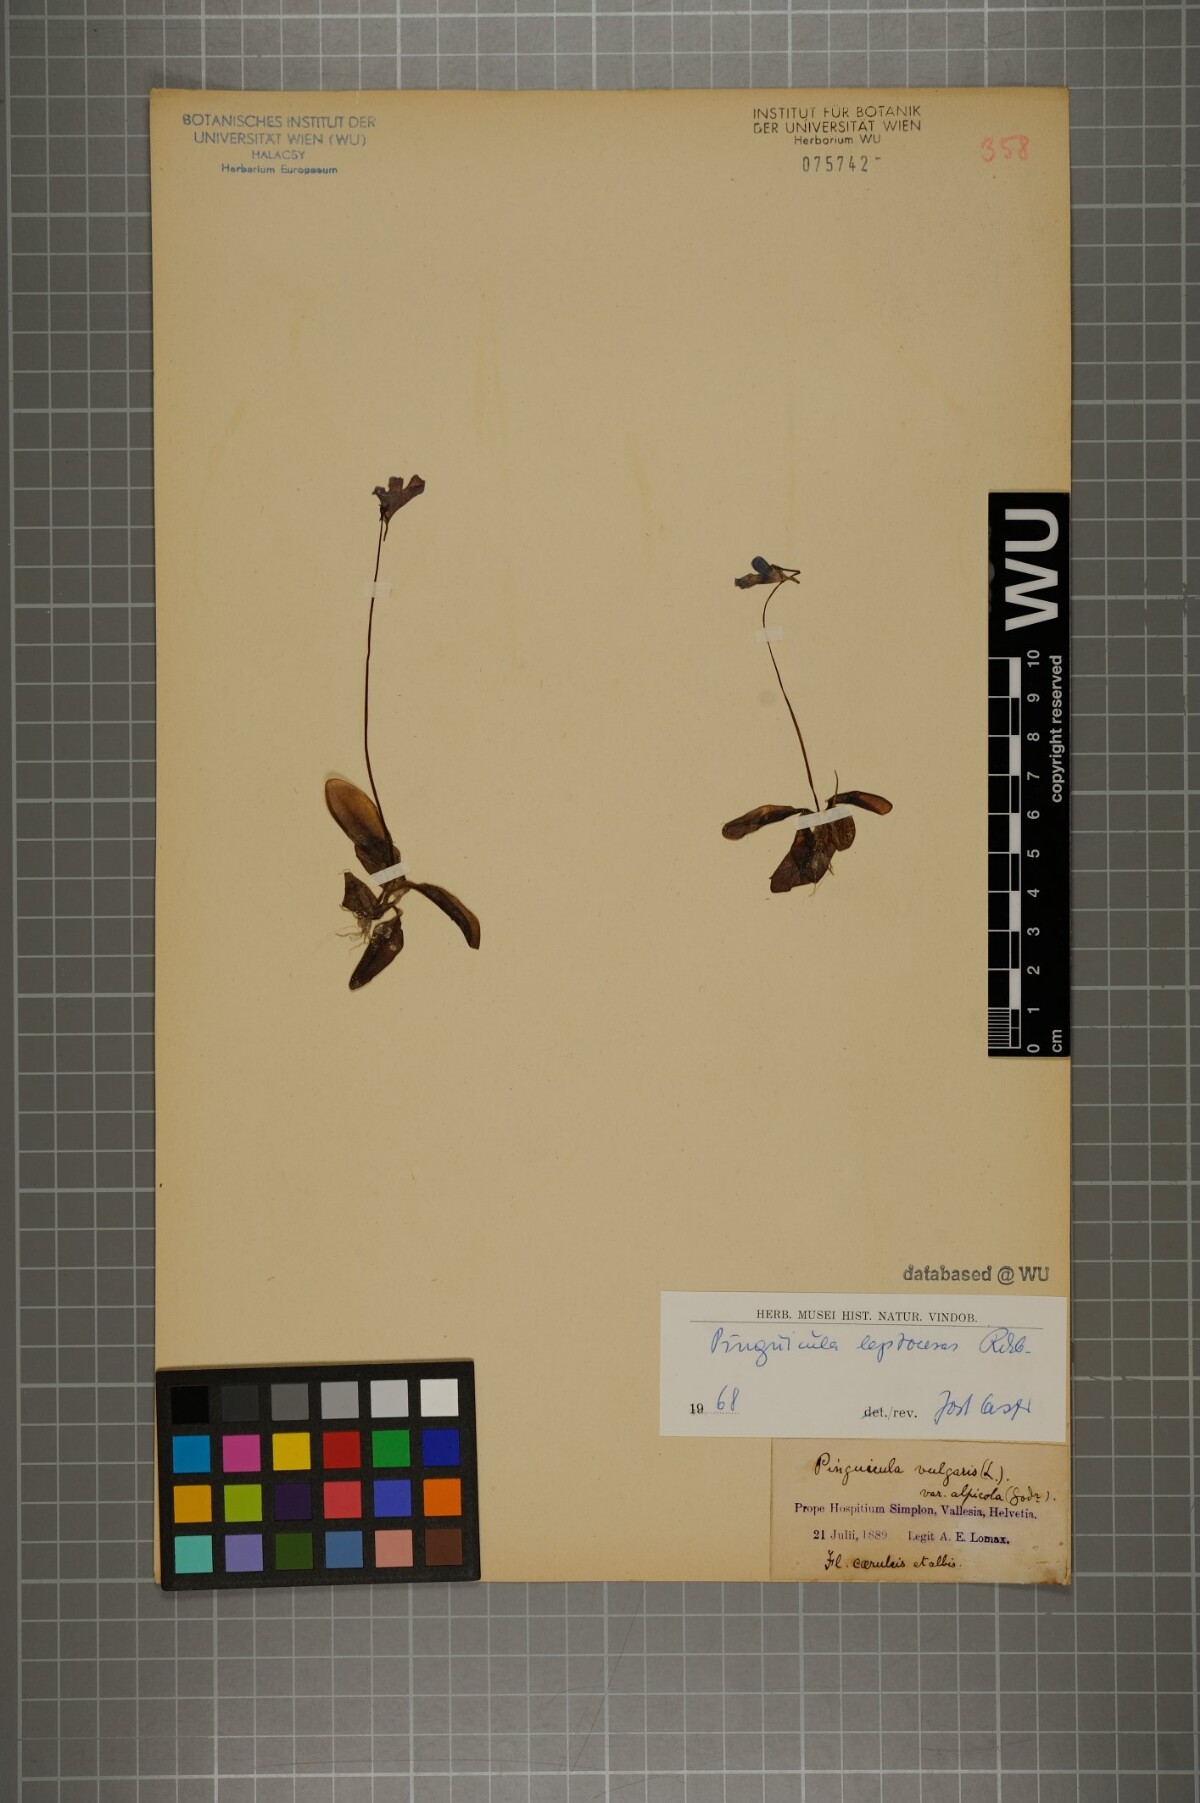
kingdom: Plantae
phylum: Tracheophyta
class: Magnoliopsida
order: Lamiales
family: Lentibulariaceae
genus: Pinguicula
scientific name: Pinguicula leptoceras
